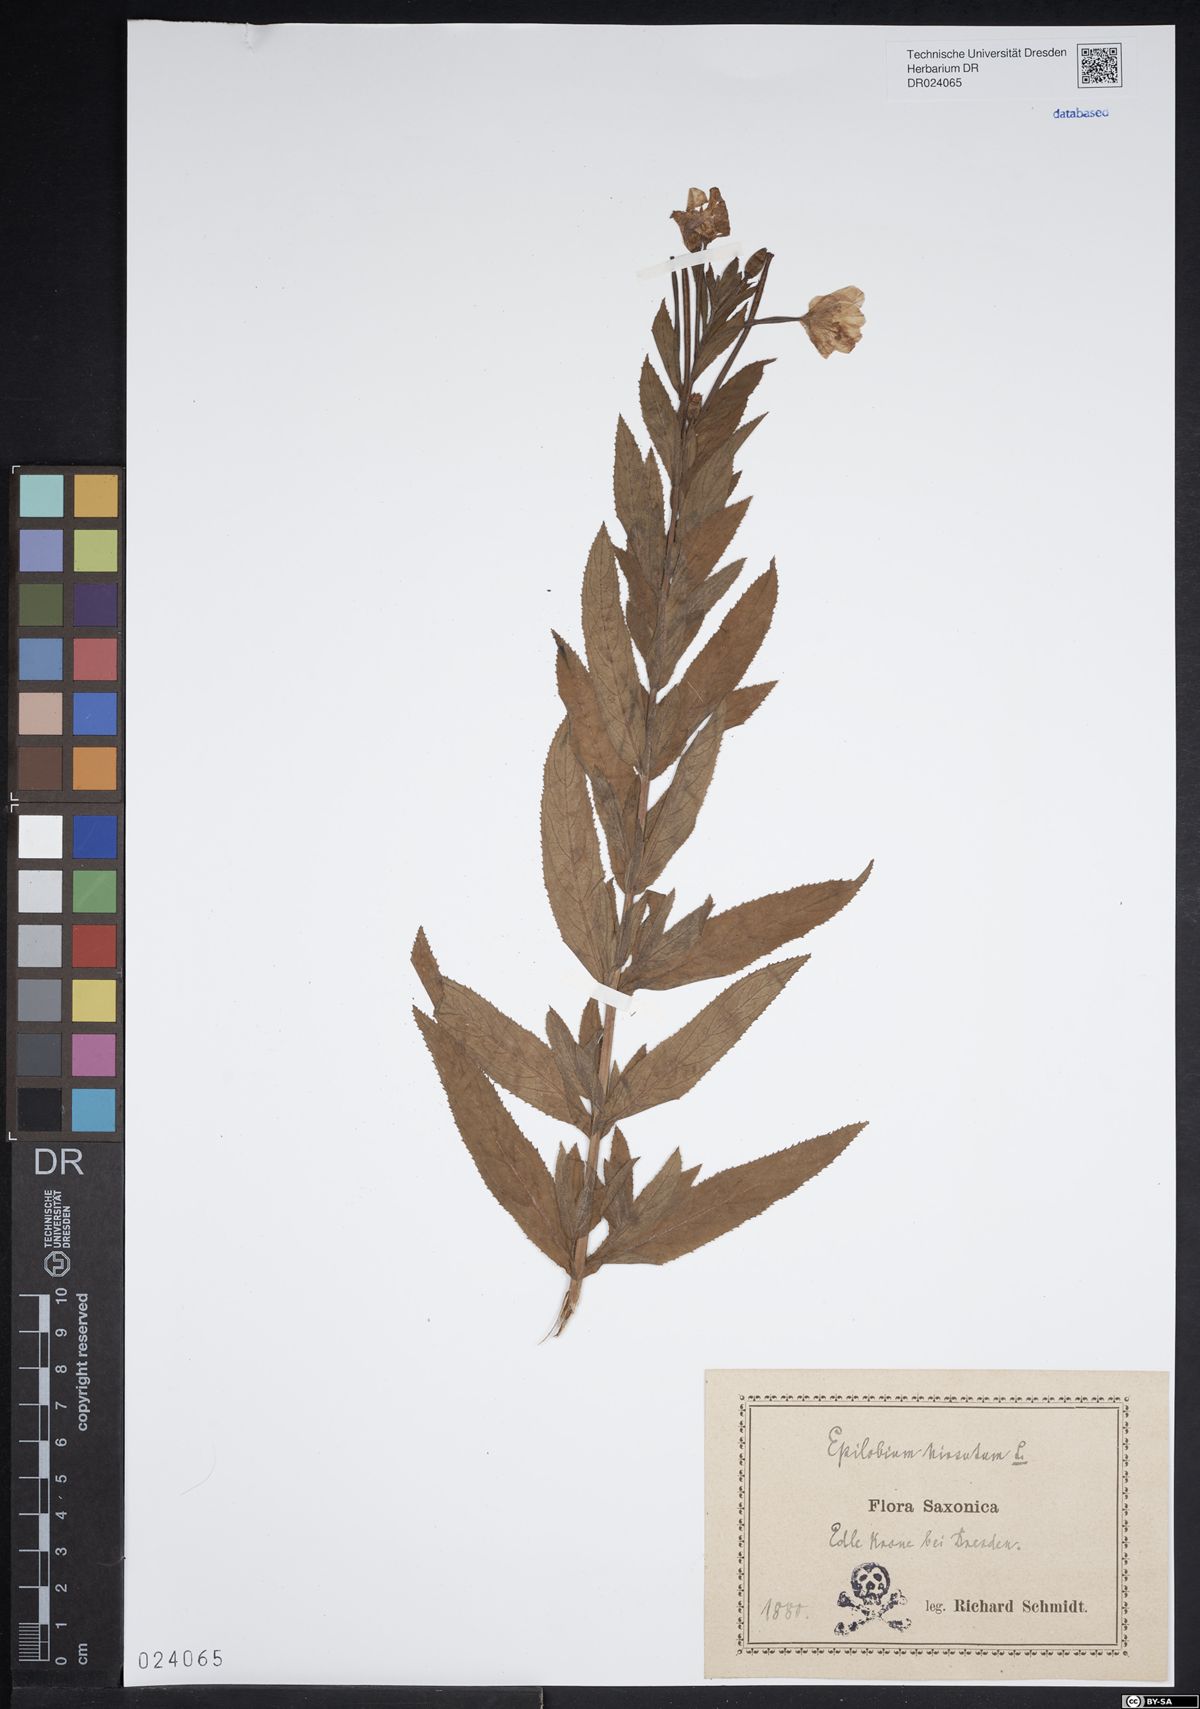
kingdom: Plantae
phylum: Tracheophyta
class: Magnoliopsida
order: Myrtales
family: Onagraceae
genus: Epilobium
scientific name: Epilobium hirsutum
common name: Great willowherb
